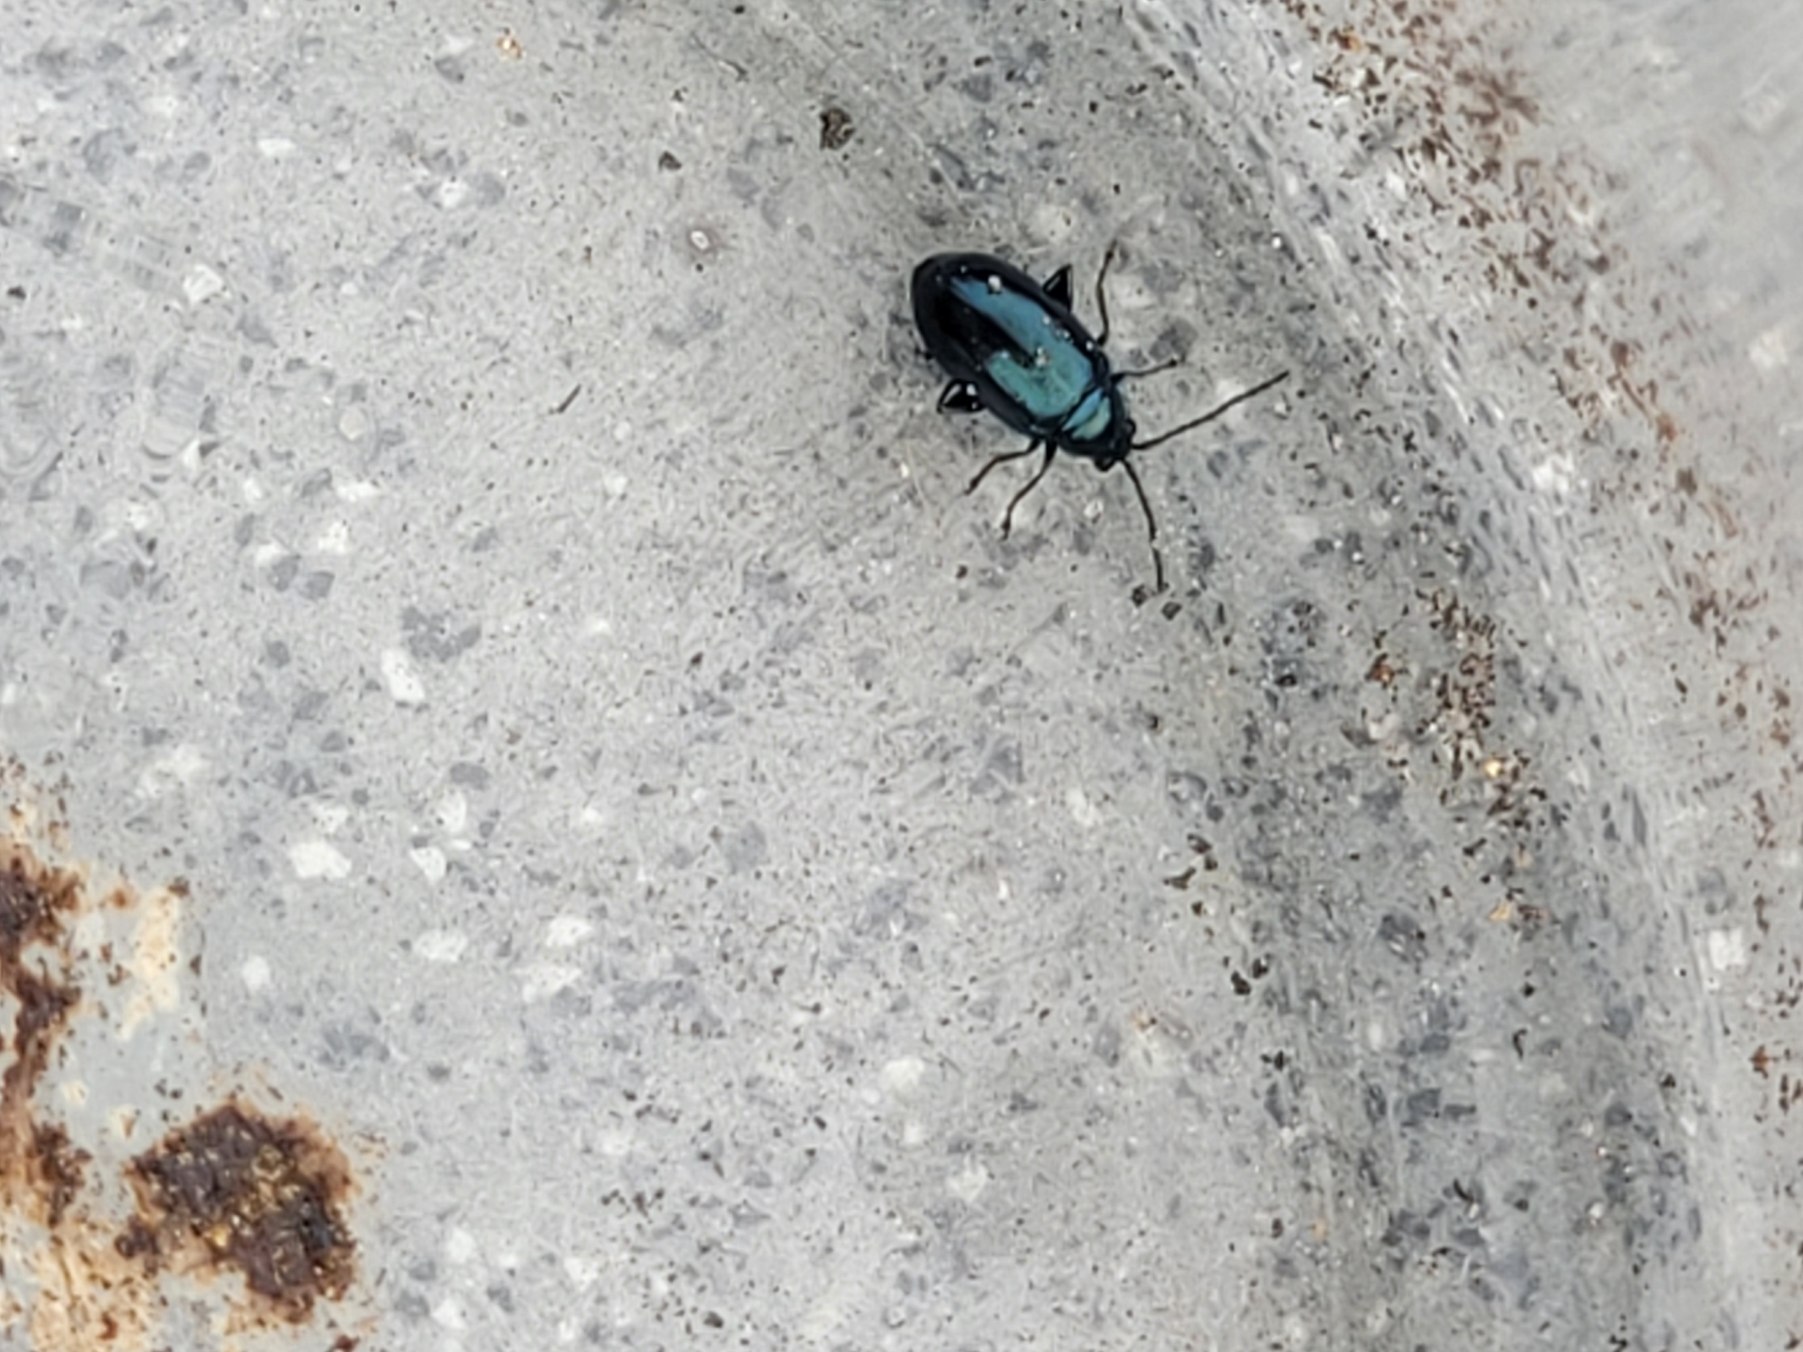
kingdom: Animalia
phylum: Arthropoda
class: Insecta
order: Coleoptera
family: Chrysomelidae
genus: Altica
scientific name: Altica
